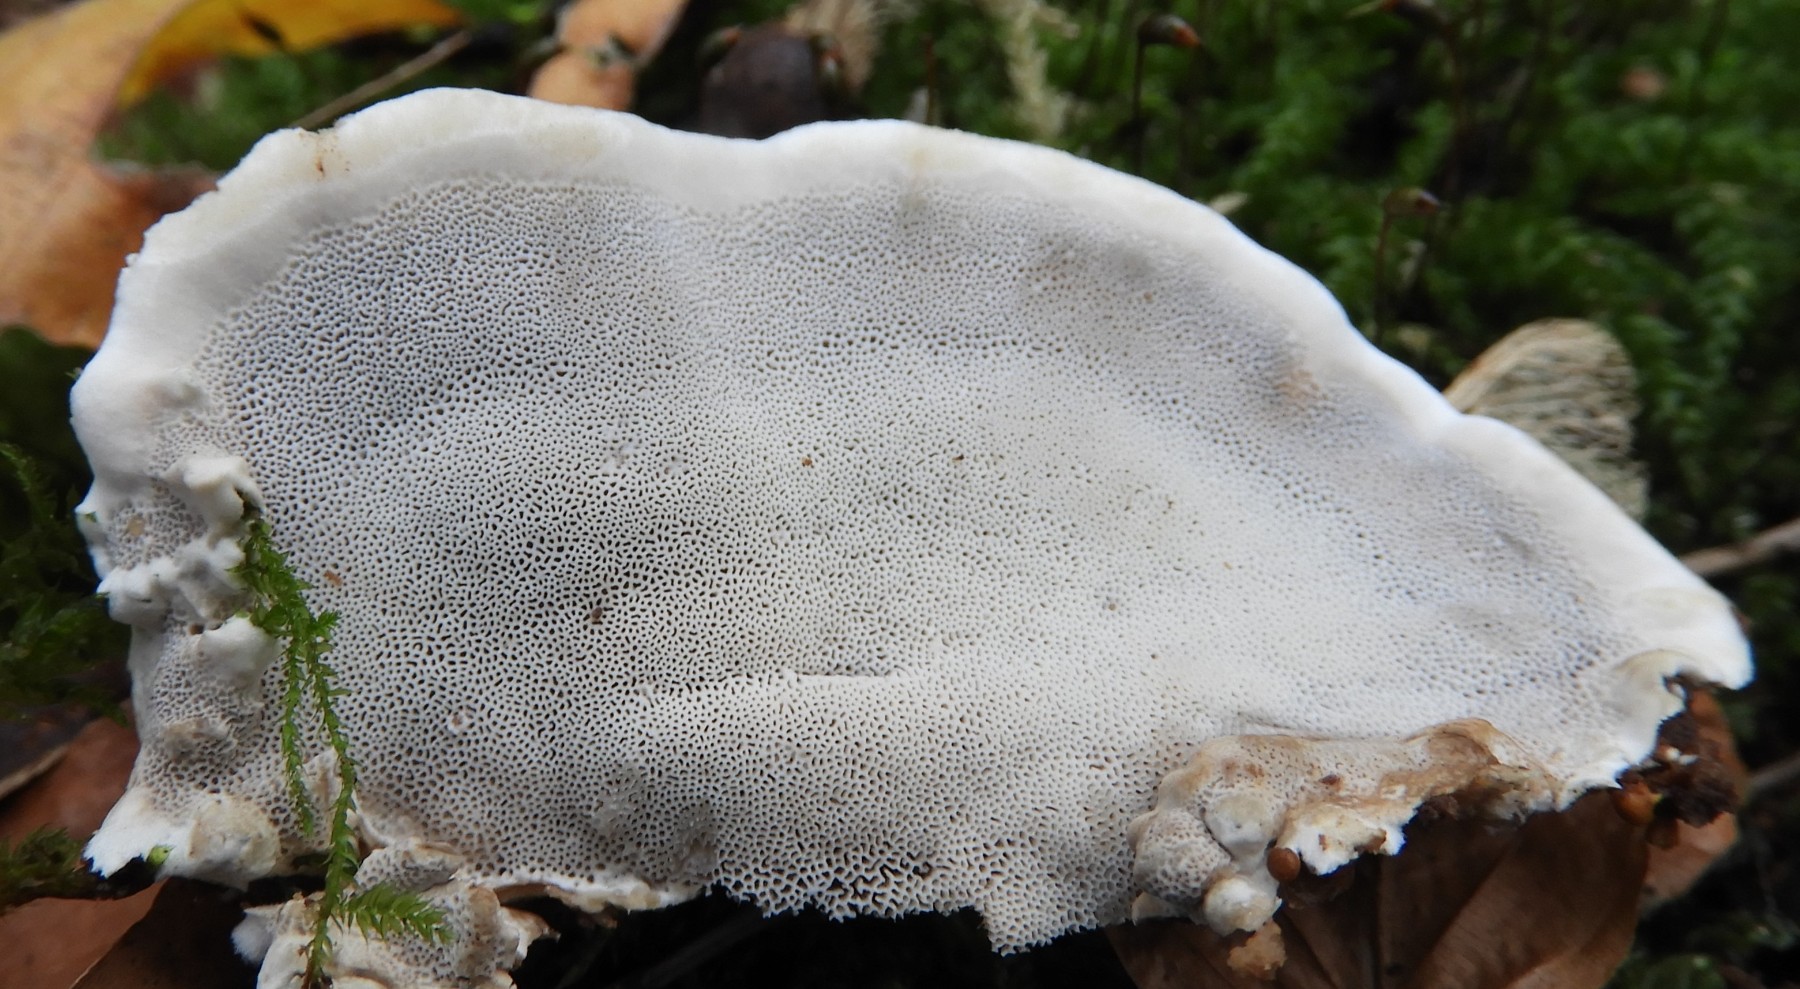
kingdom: Fungi
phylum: Basidiomycota
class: Agaricomycetes
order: Polyporales
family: Polyporaceae
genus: Cyanosporus
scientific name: Cyanosporus caesius
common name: blålig kødporesvamp
